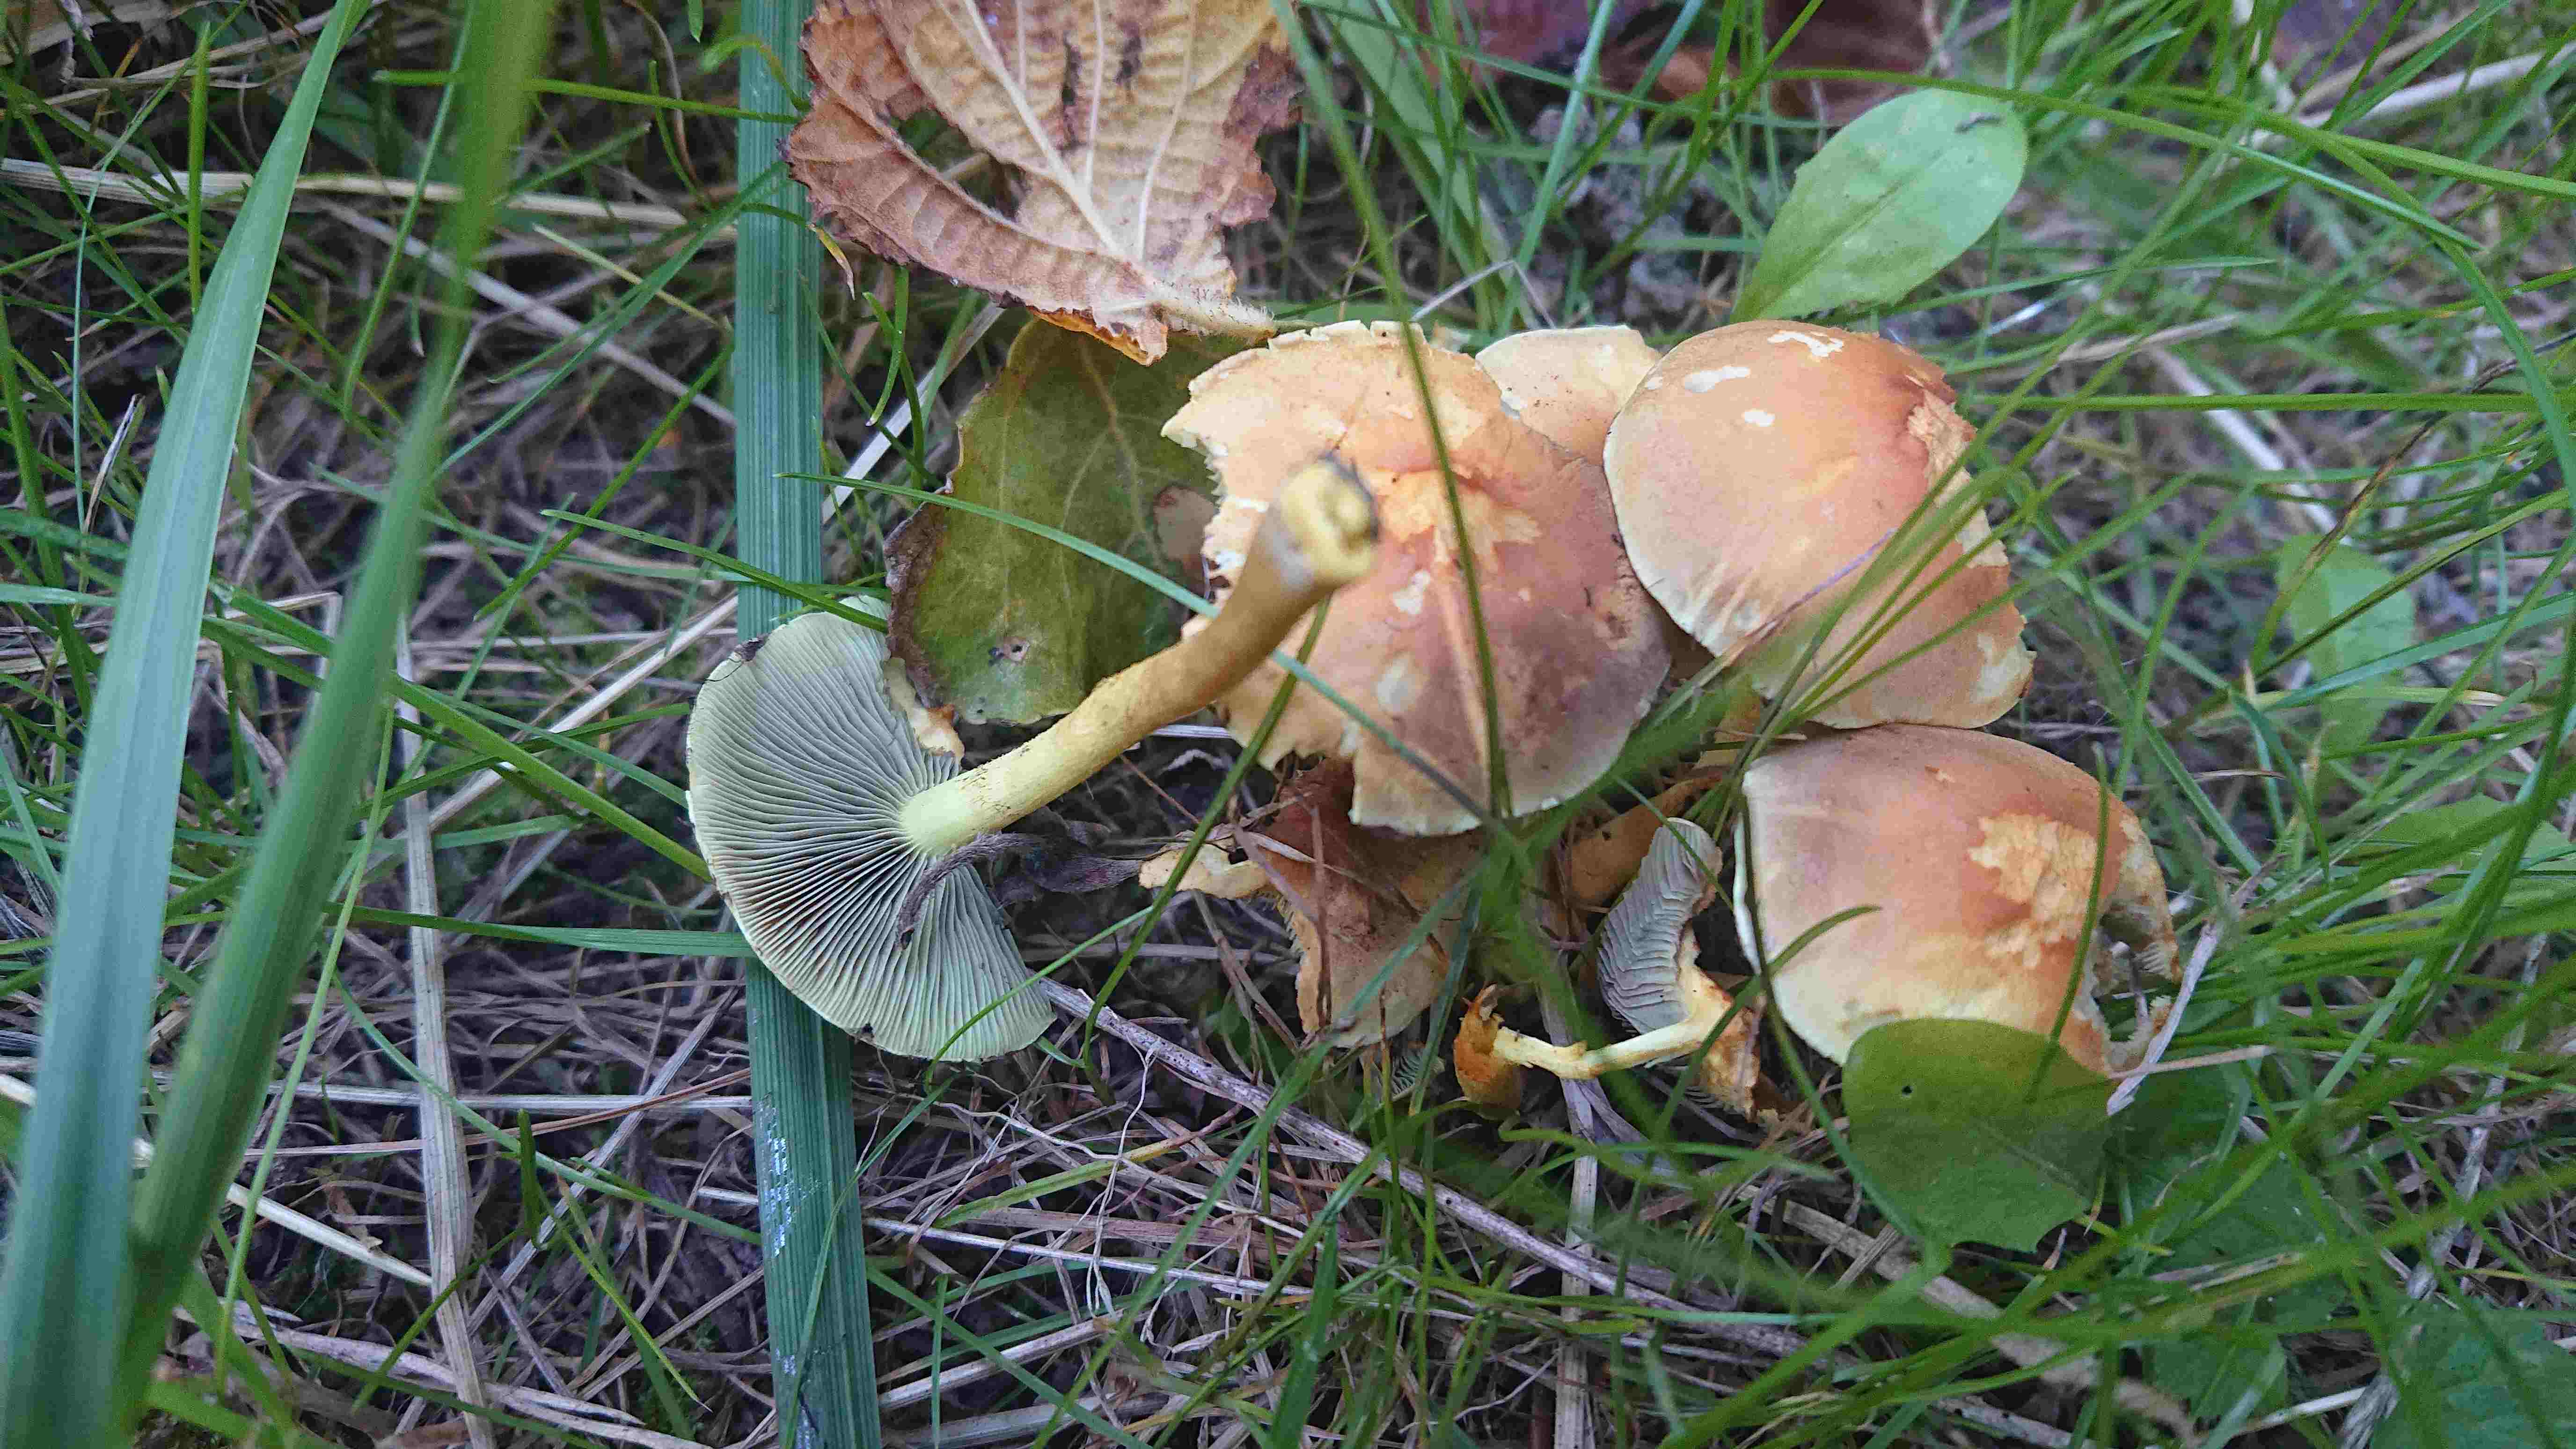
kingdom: Fungi
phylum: Basidiomycota
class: Agaricomycetes
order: Agaricales
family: Strophariaceae
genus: Hypholoma
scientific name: Hypholoma fasciculare
